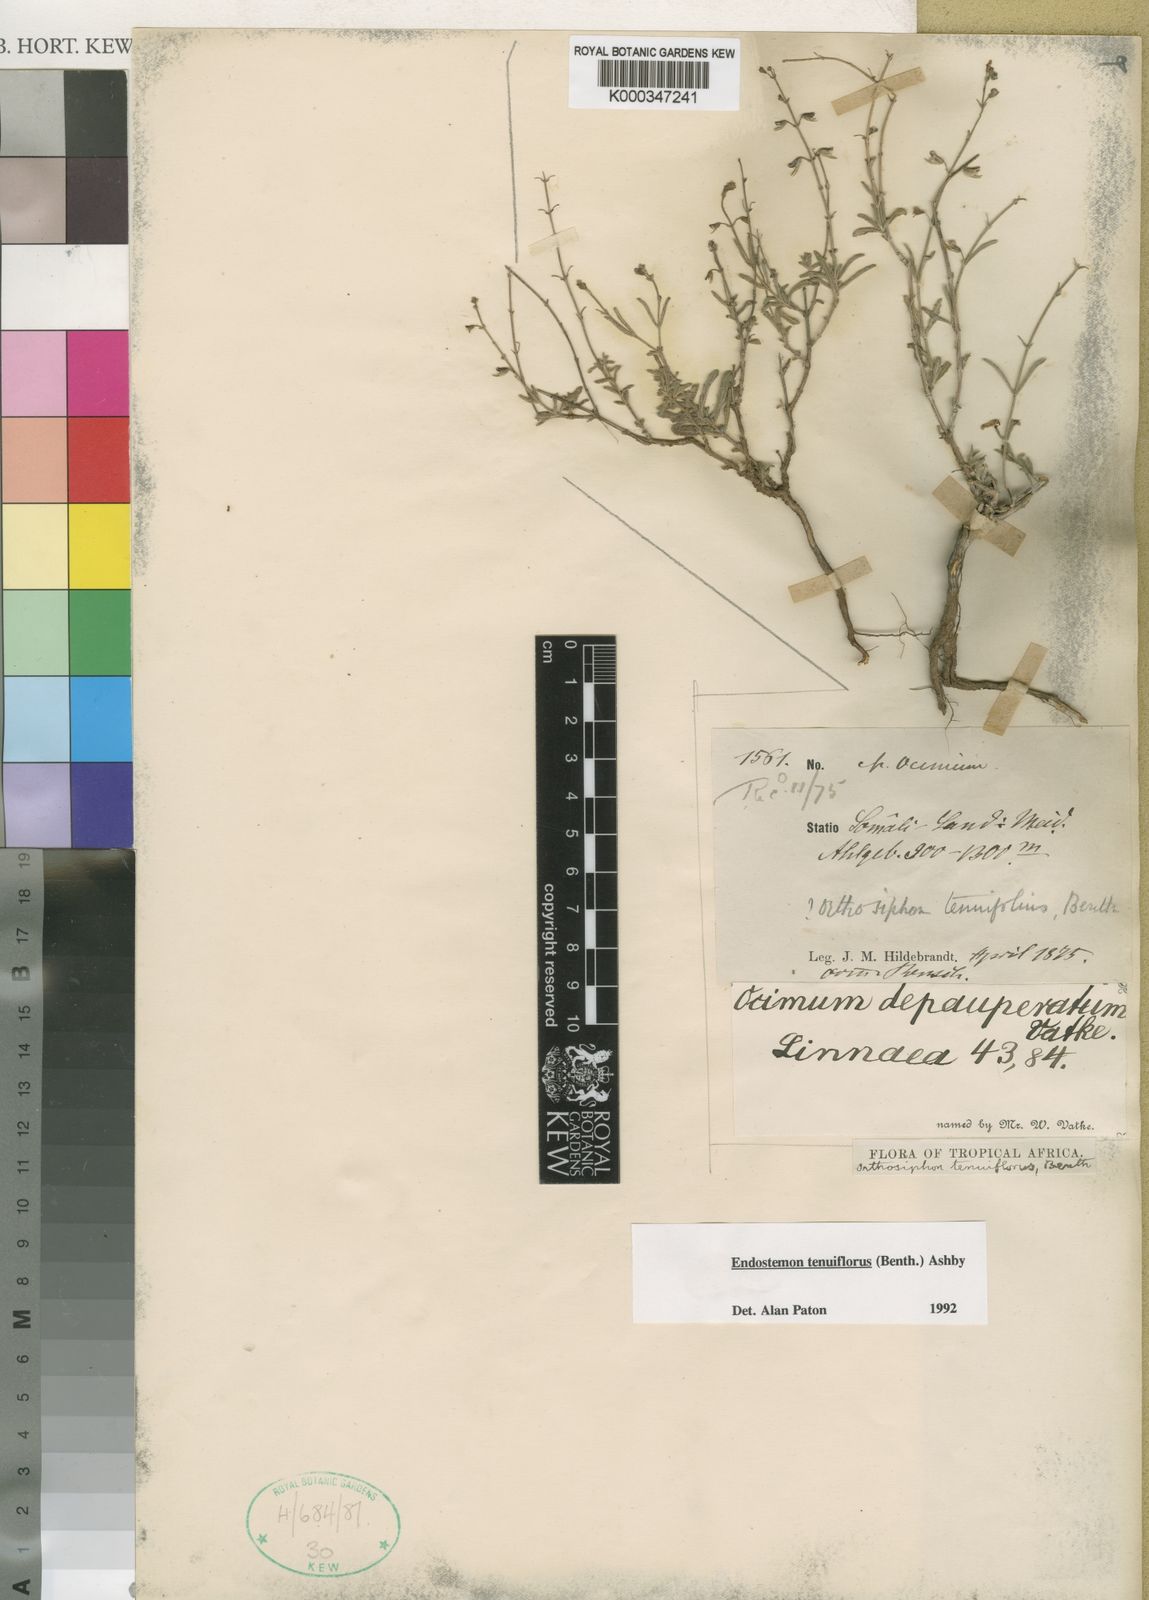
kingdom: Plantae
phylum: Tracheophyta
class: Magnoliopsida
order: Lamiales
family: Lamiaceae
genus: Endostemon
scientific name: Endostemon tenuiflorus
